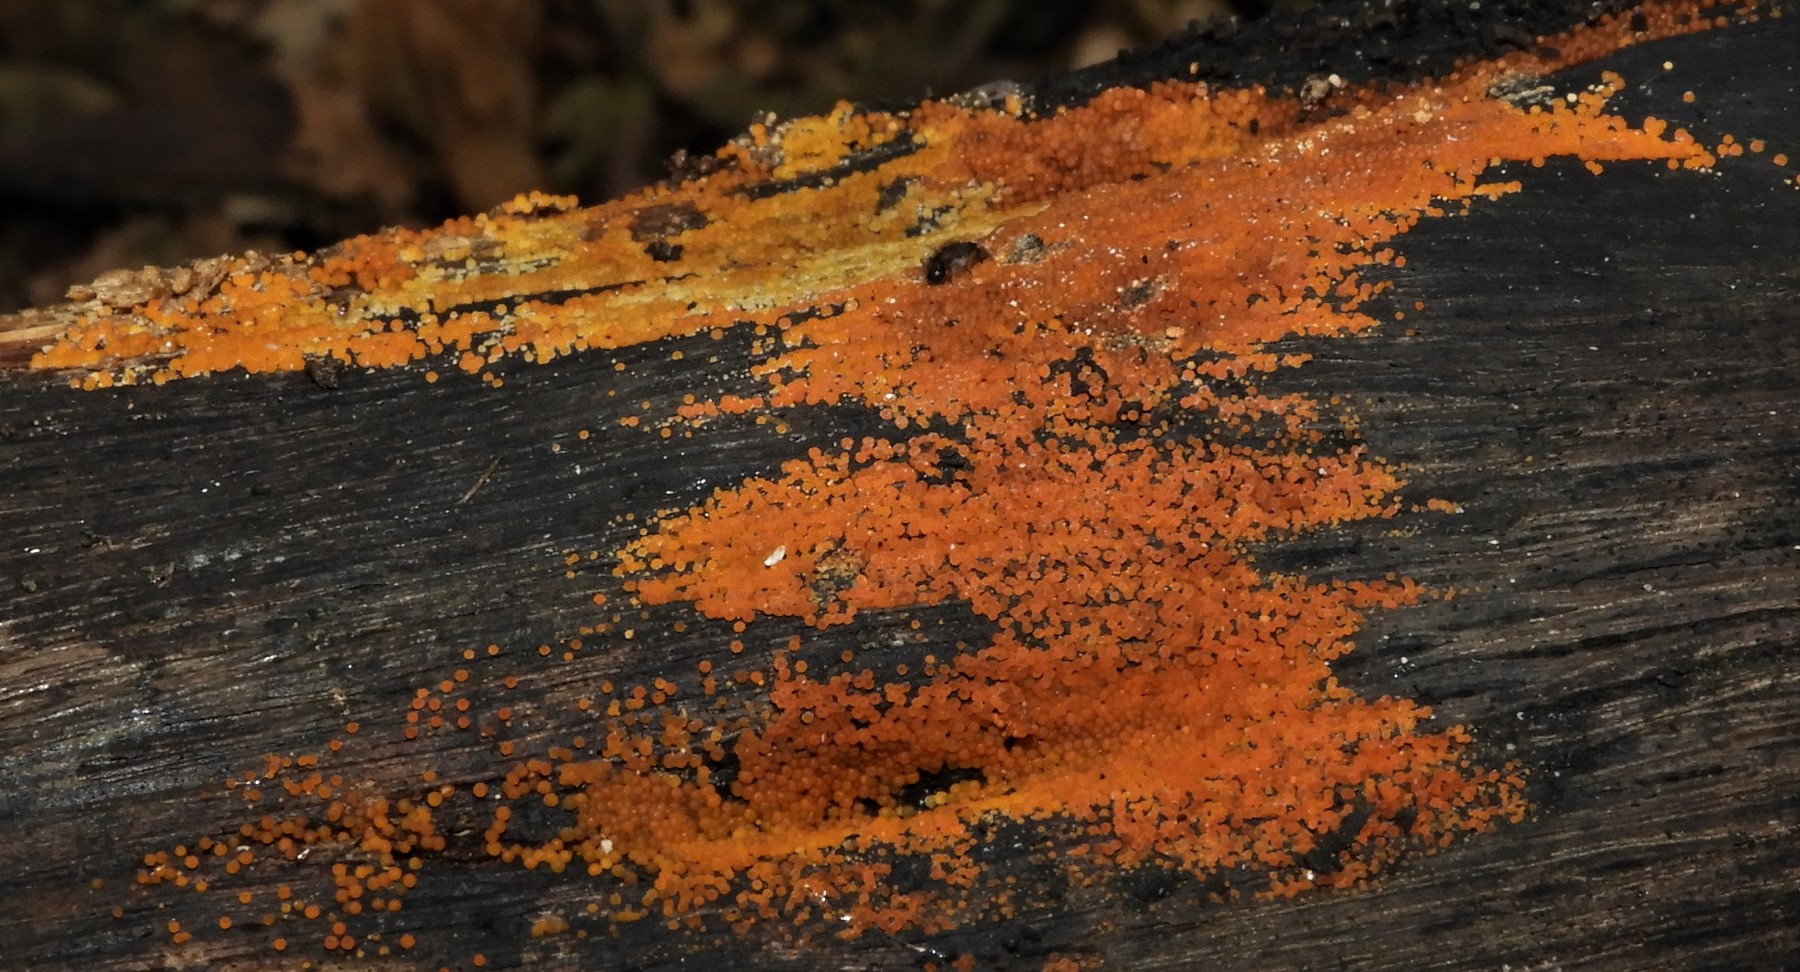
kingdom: Fungi
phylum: Ascomycota
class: Sordariomycetes
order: Hypocreales
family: Nectriaceae
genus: Hydropisphaera
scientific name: Hydropisphaera
